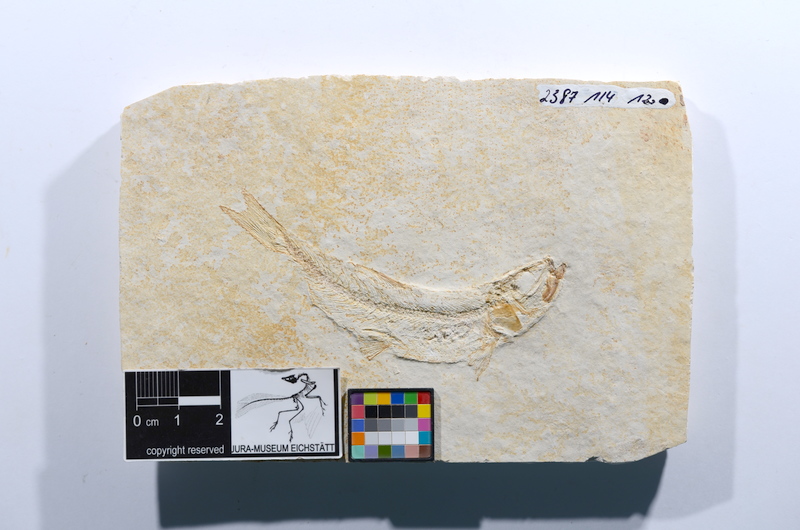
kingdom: Animalia
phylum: Chordata
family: Ascalaboidae
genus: Tharsis
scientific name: Tharsis dubius
